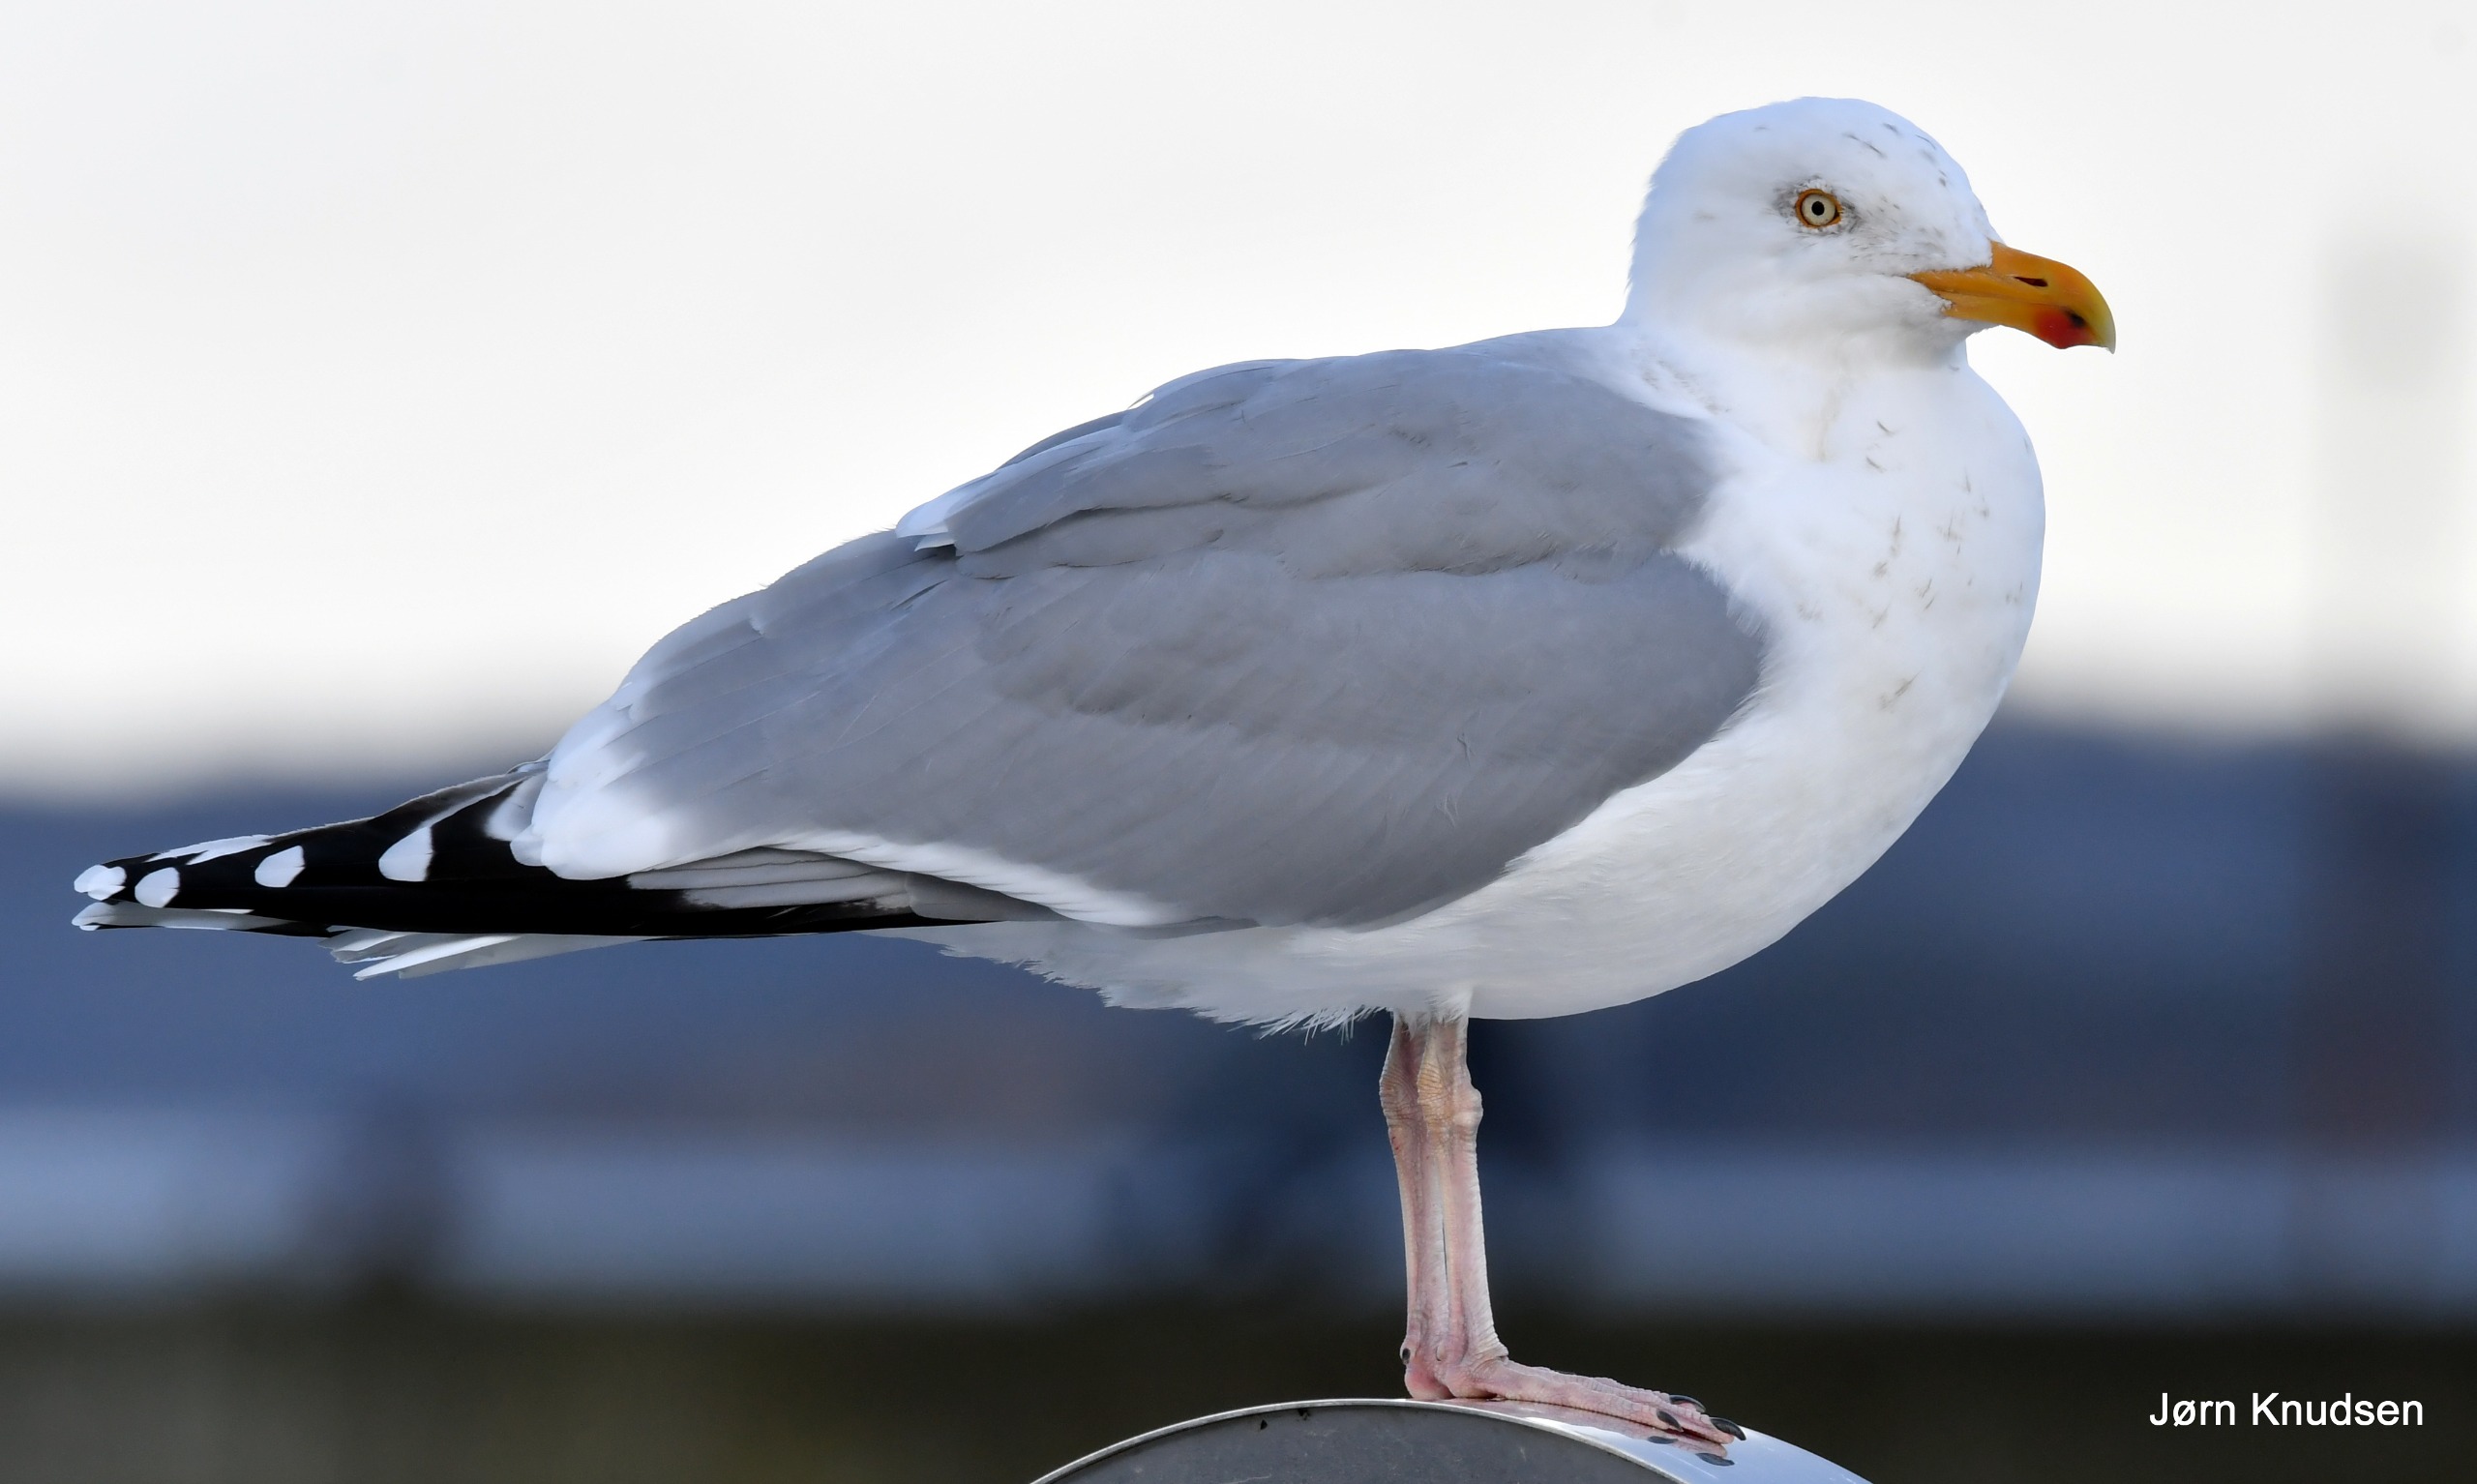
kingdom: Animalia
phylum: Chordata
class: Aves
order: Charadriiformes
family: Laridae
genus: Larus
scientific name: Larus argentatus
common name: Sølvmåge
